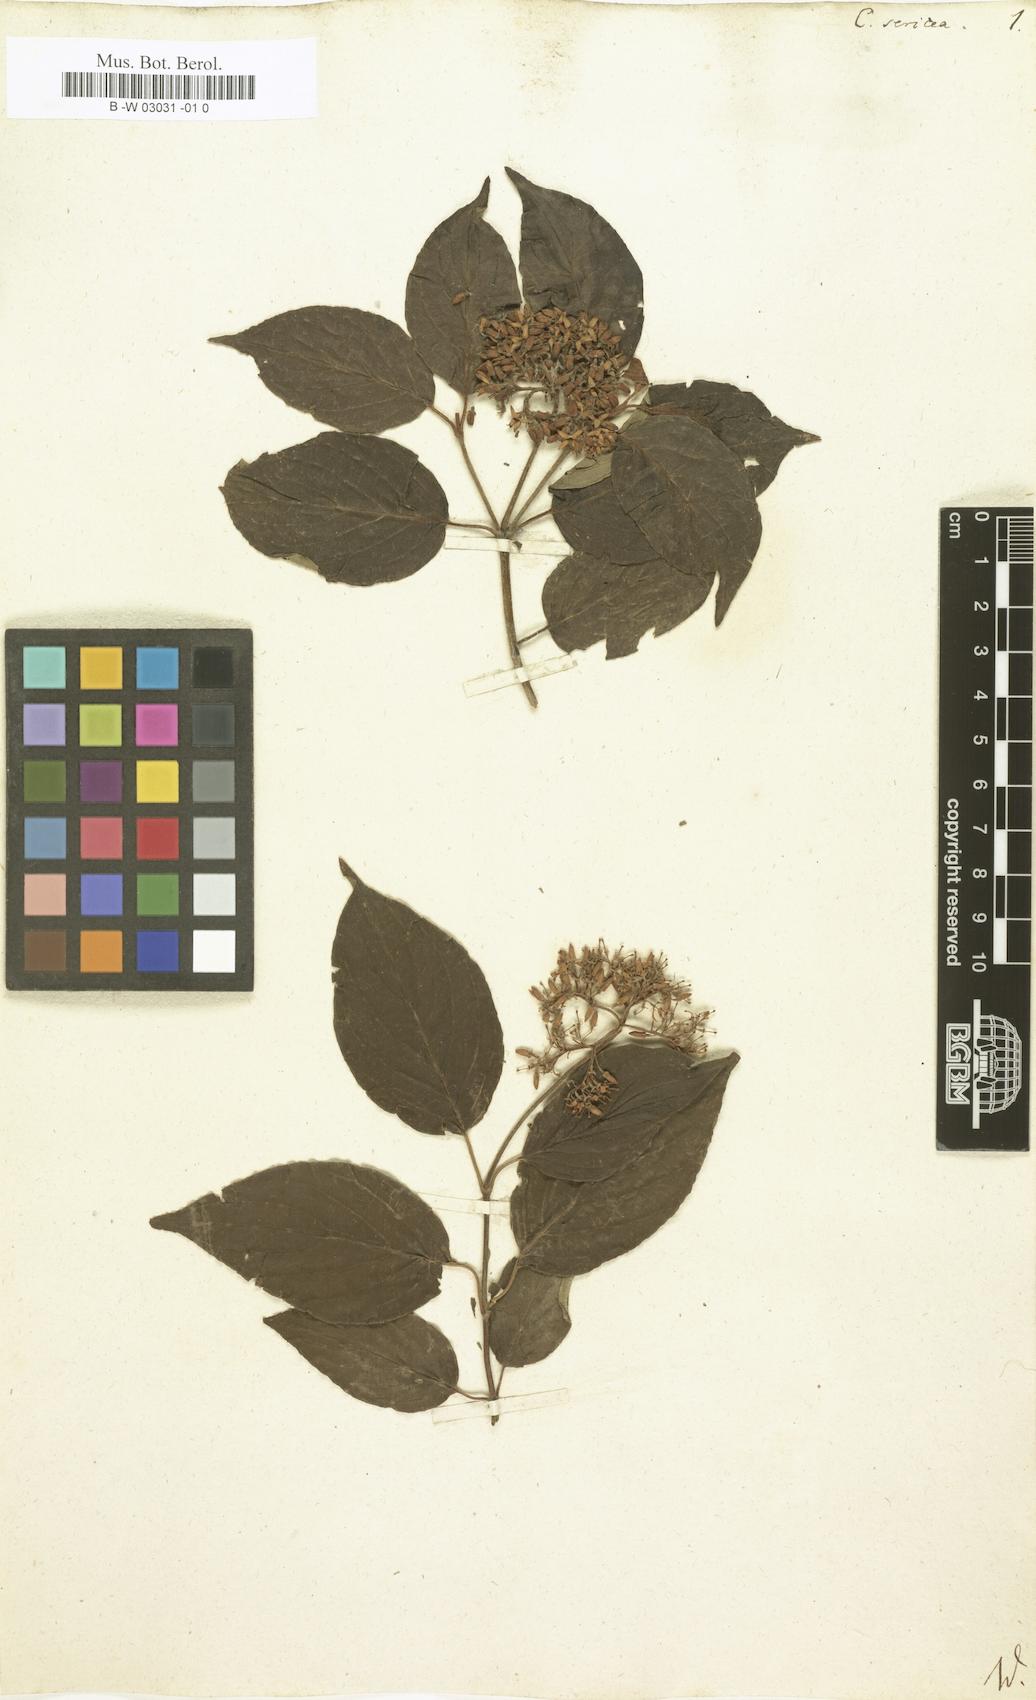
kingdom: Plantae
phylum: Tracheophyta
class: Magnoliopsida
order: Cornales
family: Cornaceae
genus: Cornus
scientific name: Cornus sericea
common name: Red-osier dogwood
